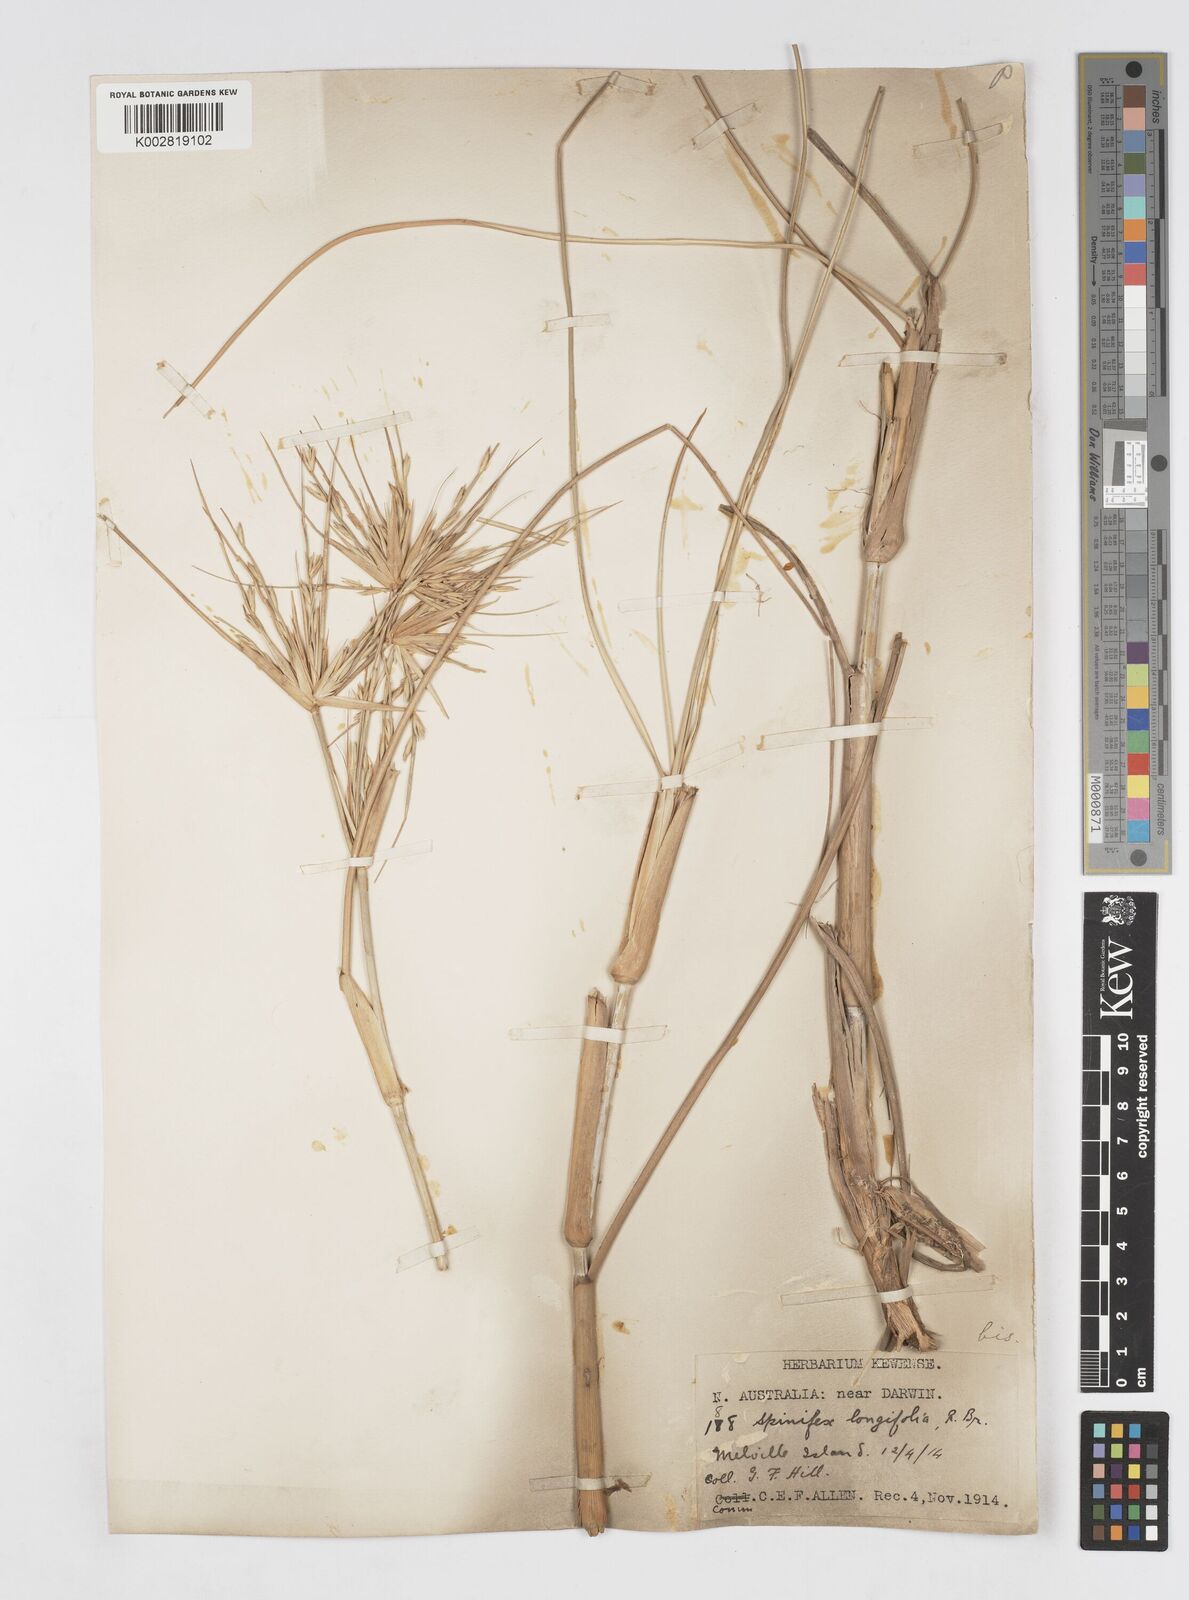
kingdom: Plantae
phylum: Tracheophyta
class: Liliopsida
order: Poales
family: Poaceae
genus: Spinifex
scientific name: Spinifex longifolius
